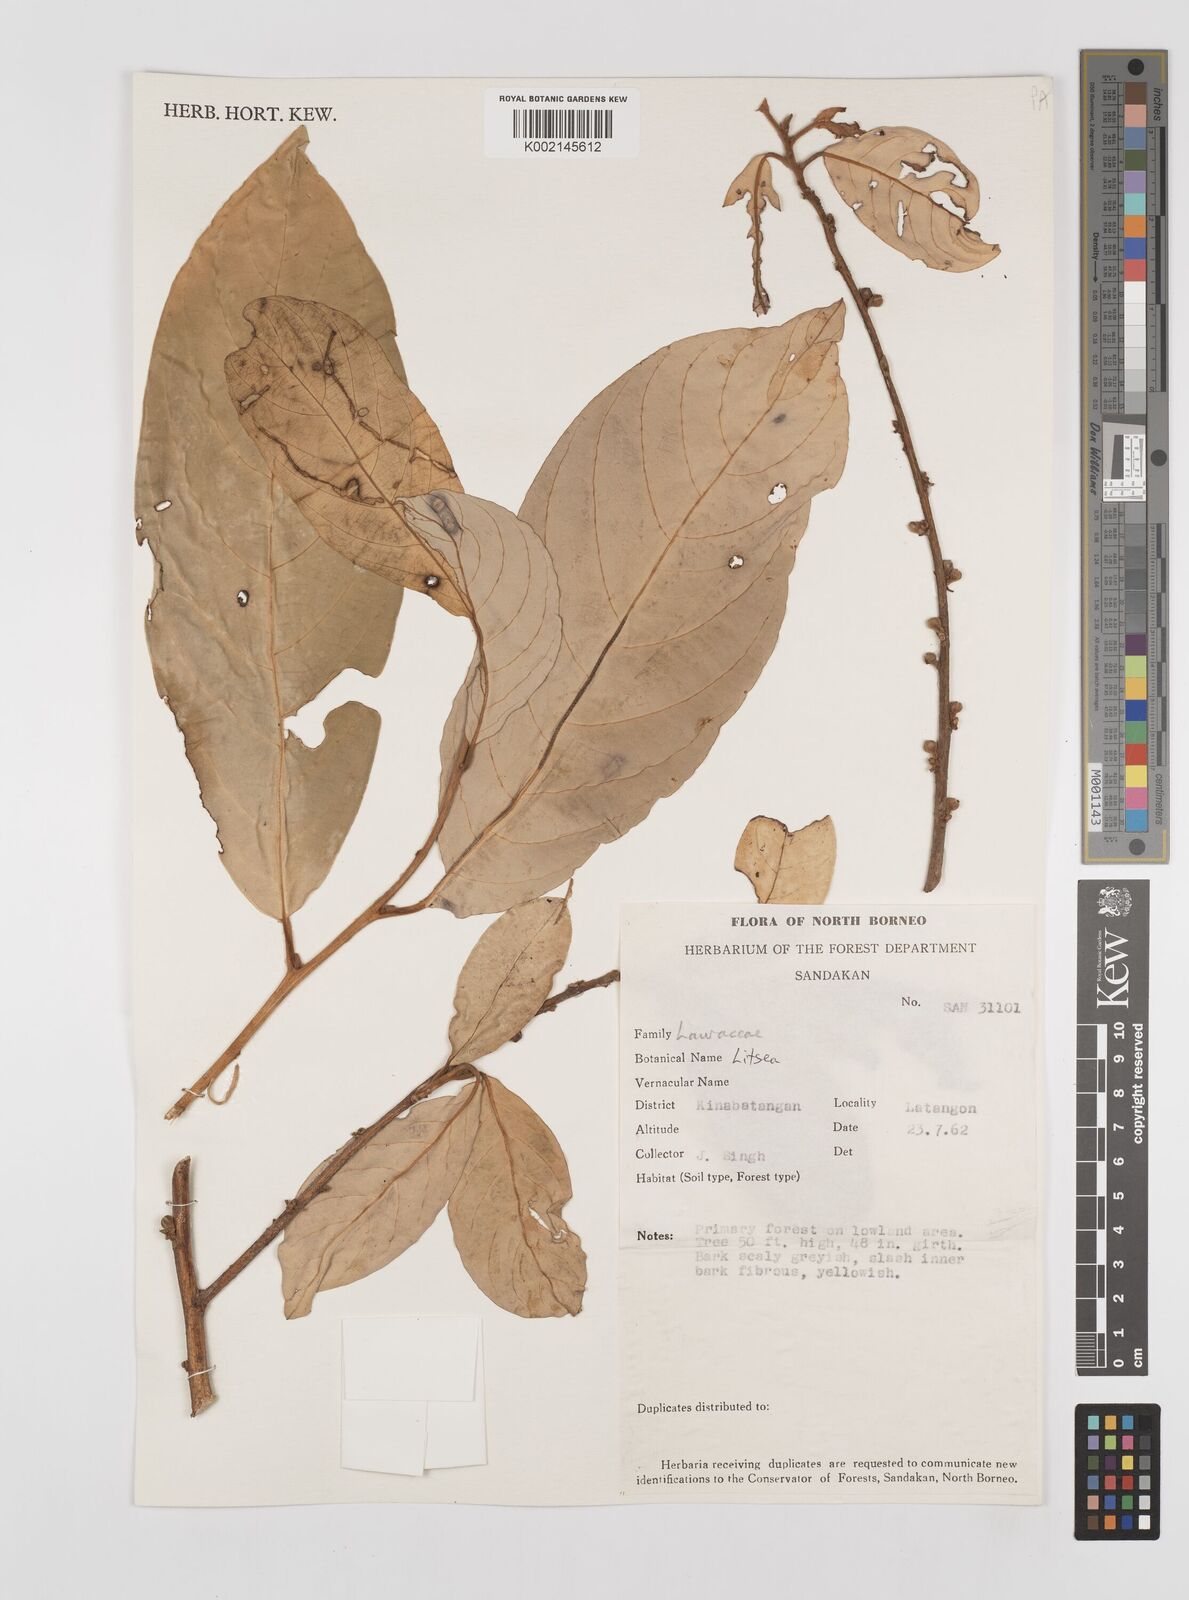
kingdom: Plantae
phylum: Tracheophyta
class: Magnoliopsida
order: Laurales
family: Lauraceae
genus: Litsea
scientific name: Litsea
